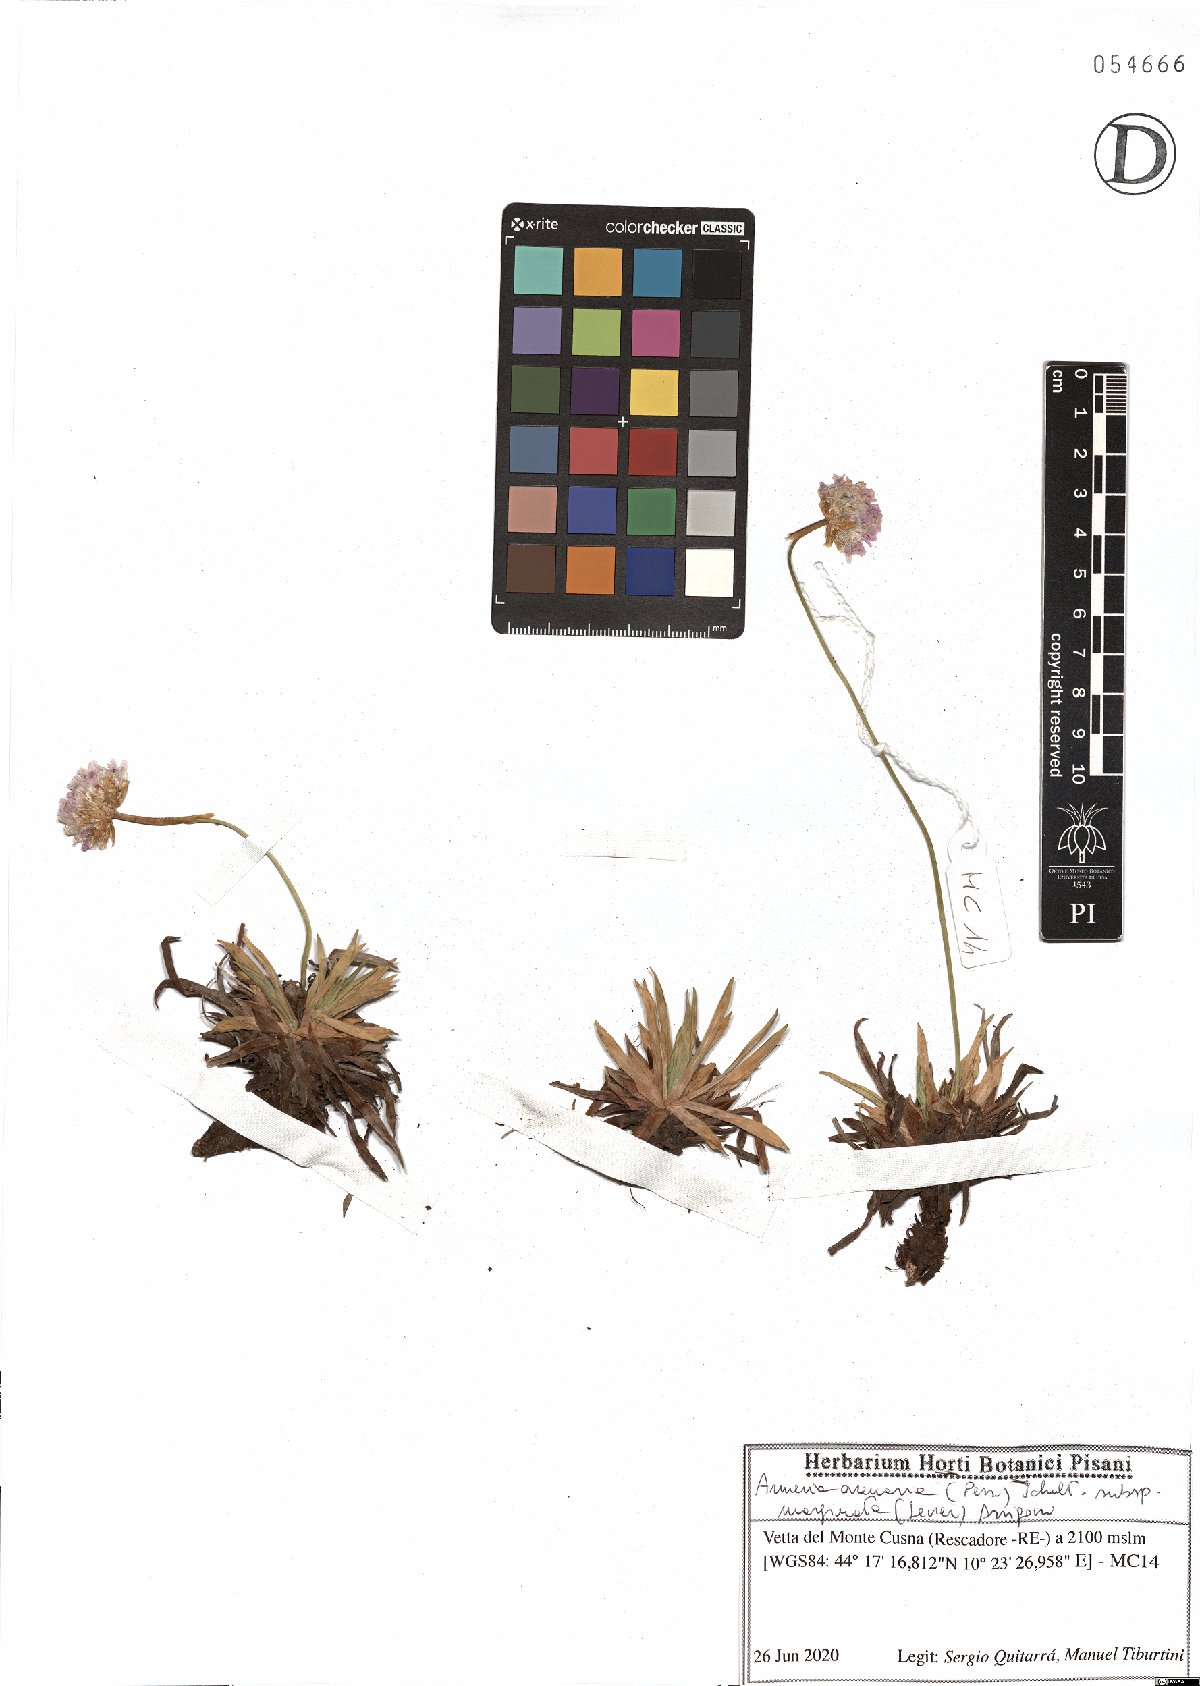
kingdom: Plantae
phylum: Tracheophyta
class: Magnoliopsida
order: Caryophyllales
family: Plumbaginaceae
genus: Armeria
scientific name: Armeria arenaria
